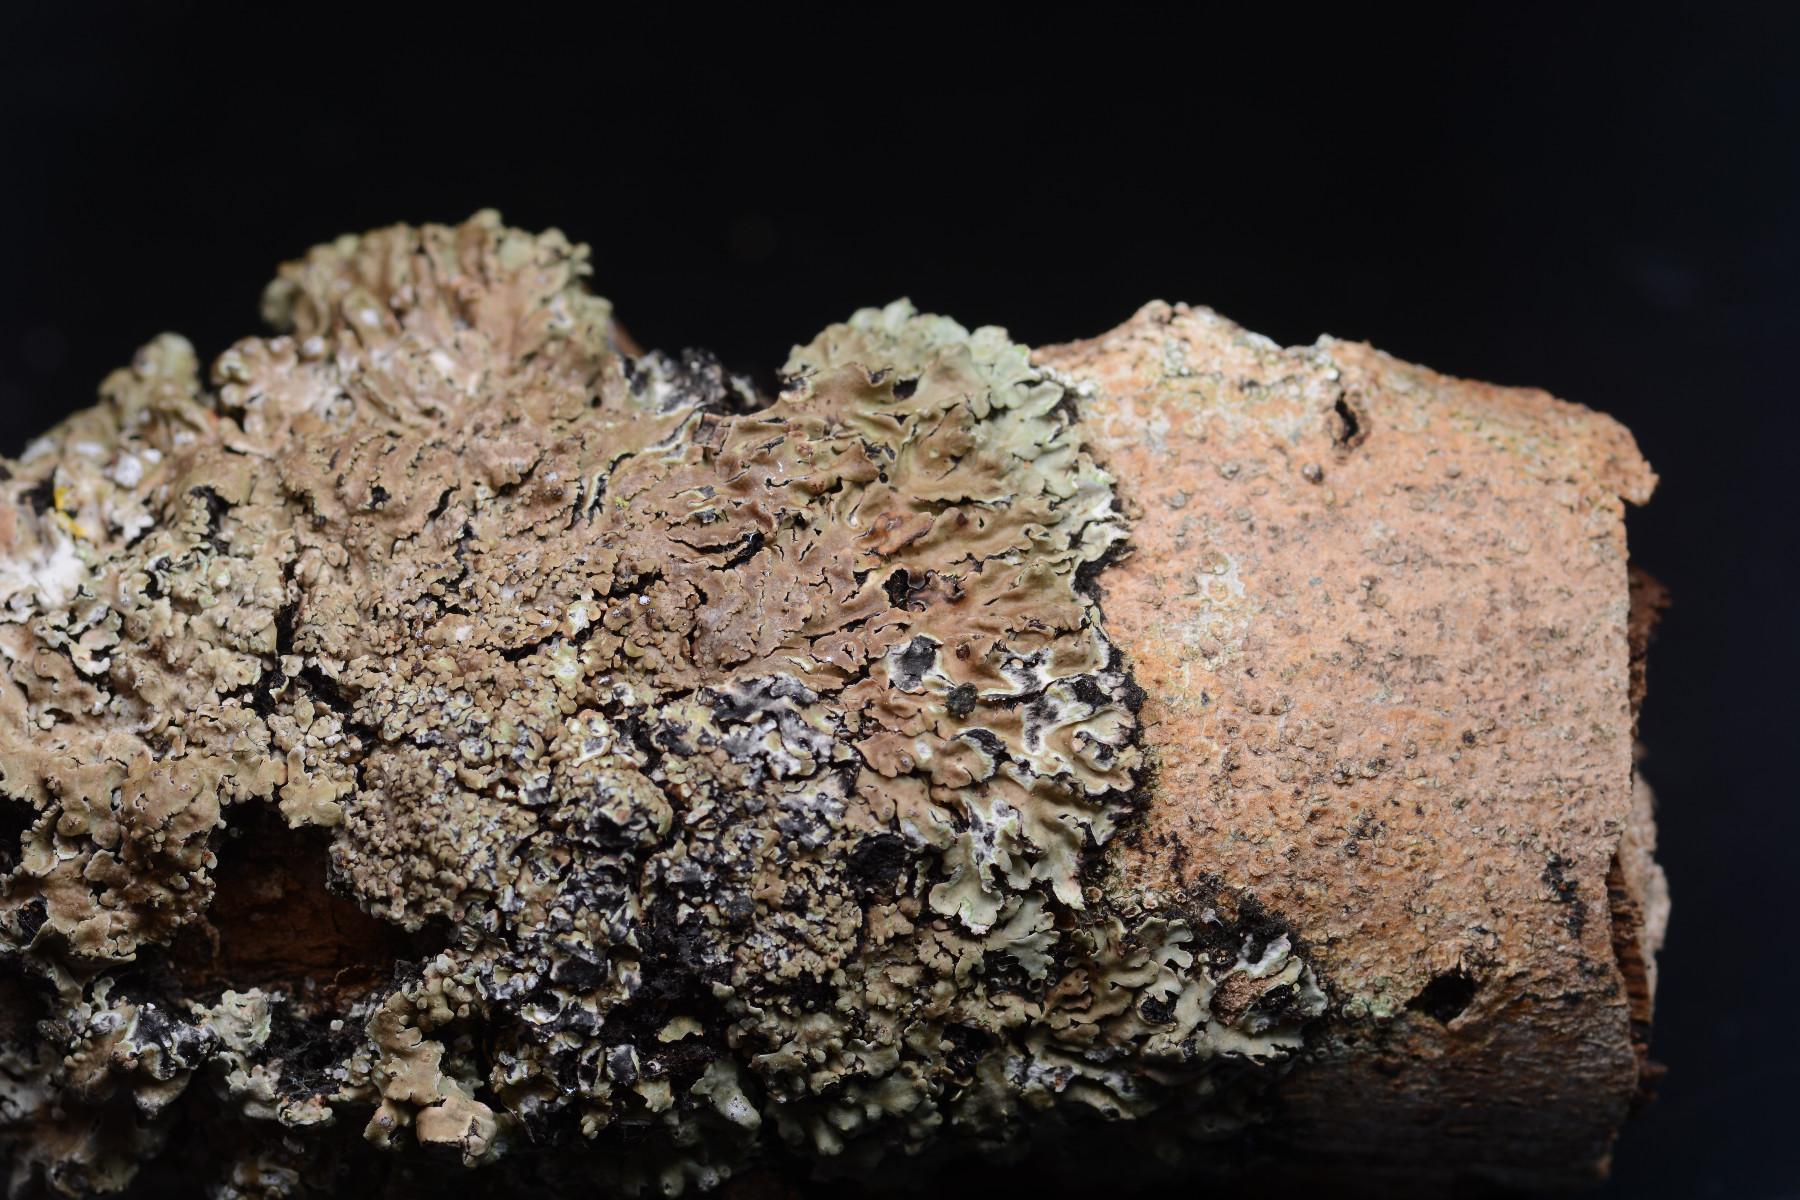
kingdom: Fungi
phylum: Ascomycota
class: Lecanoromycetes
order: Caliciales
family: Physciaceae
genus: Physconia
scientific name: Physconia distorta
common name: pudret dugrosetlav
